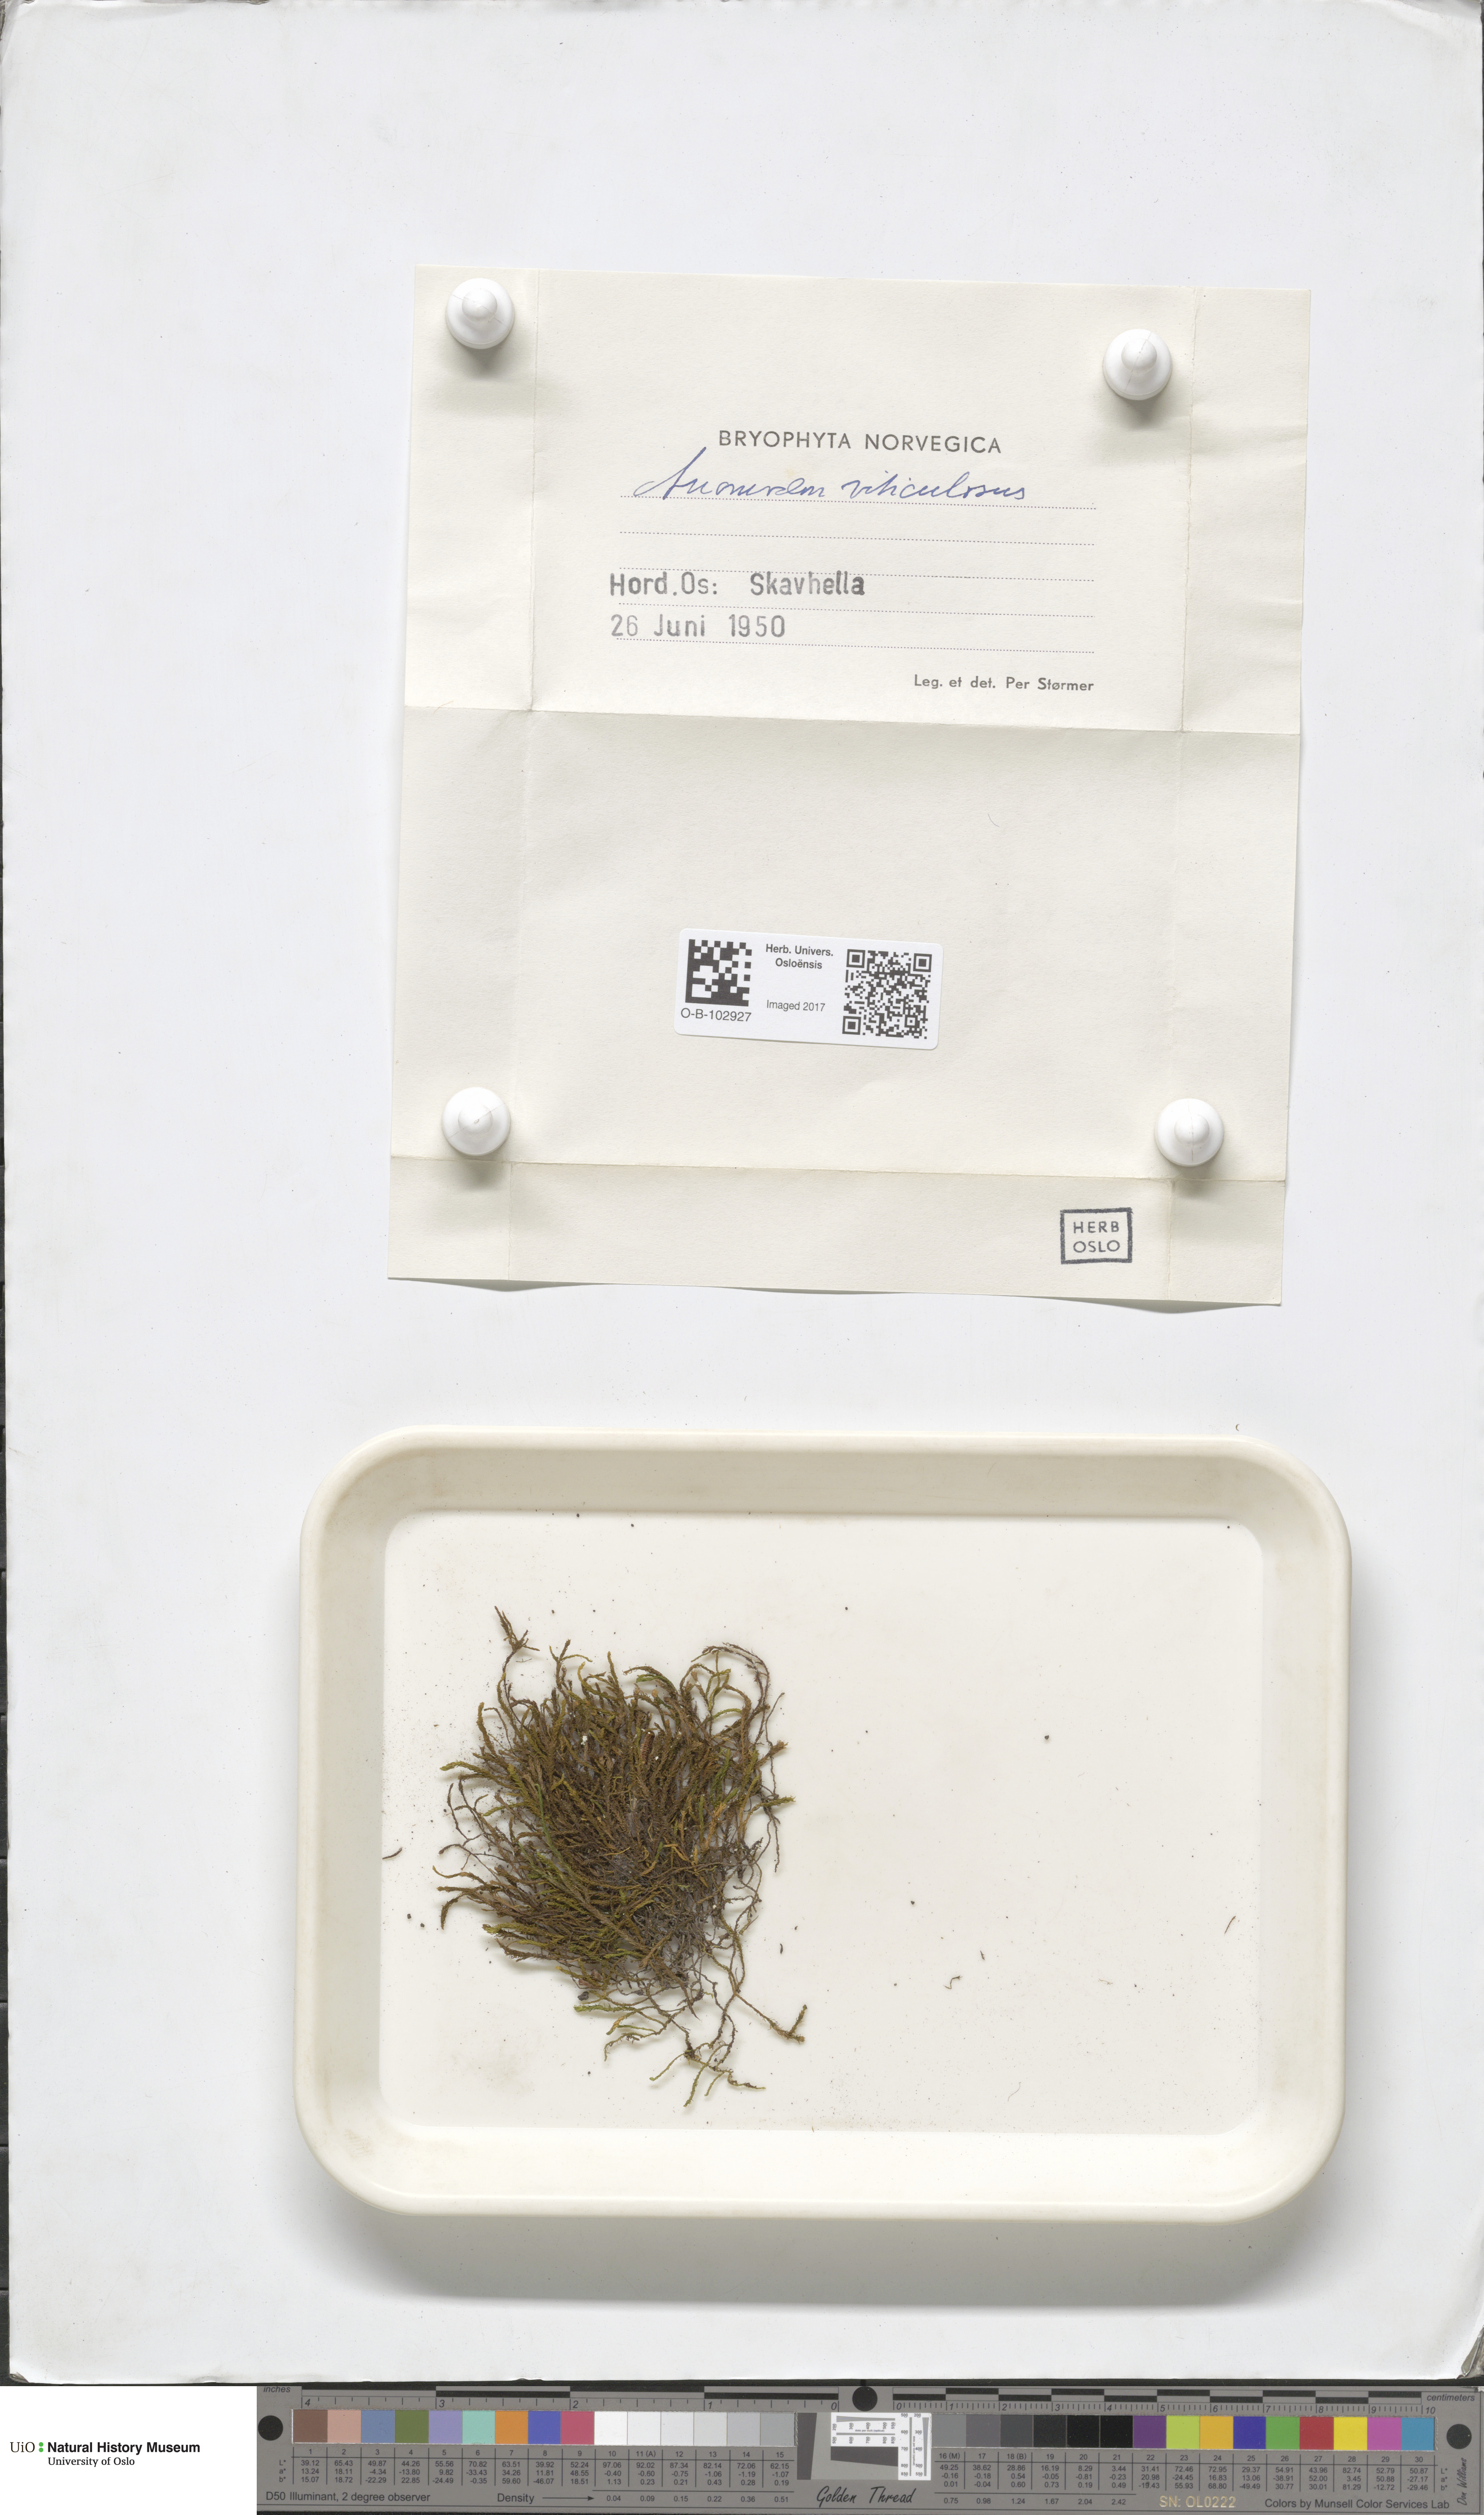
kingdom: Plantae
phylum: Bryophyta
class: Bryopsida
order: Hypnales
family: Anomodontaceae
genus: Anomodon
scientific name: Anomodon viticulosus
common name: Tall anomodon
